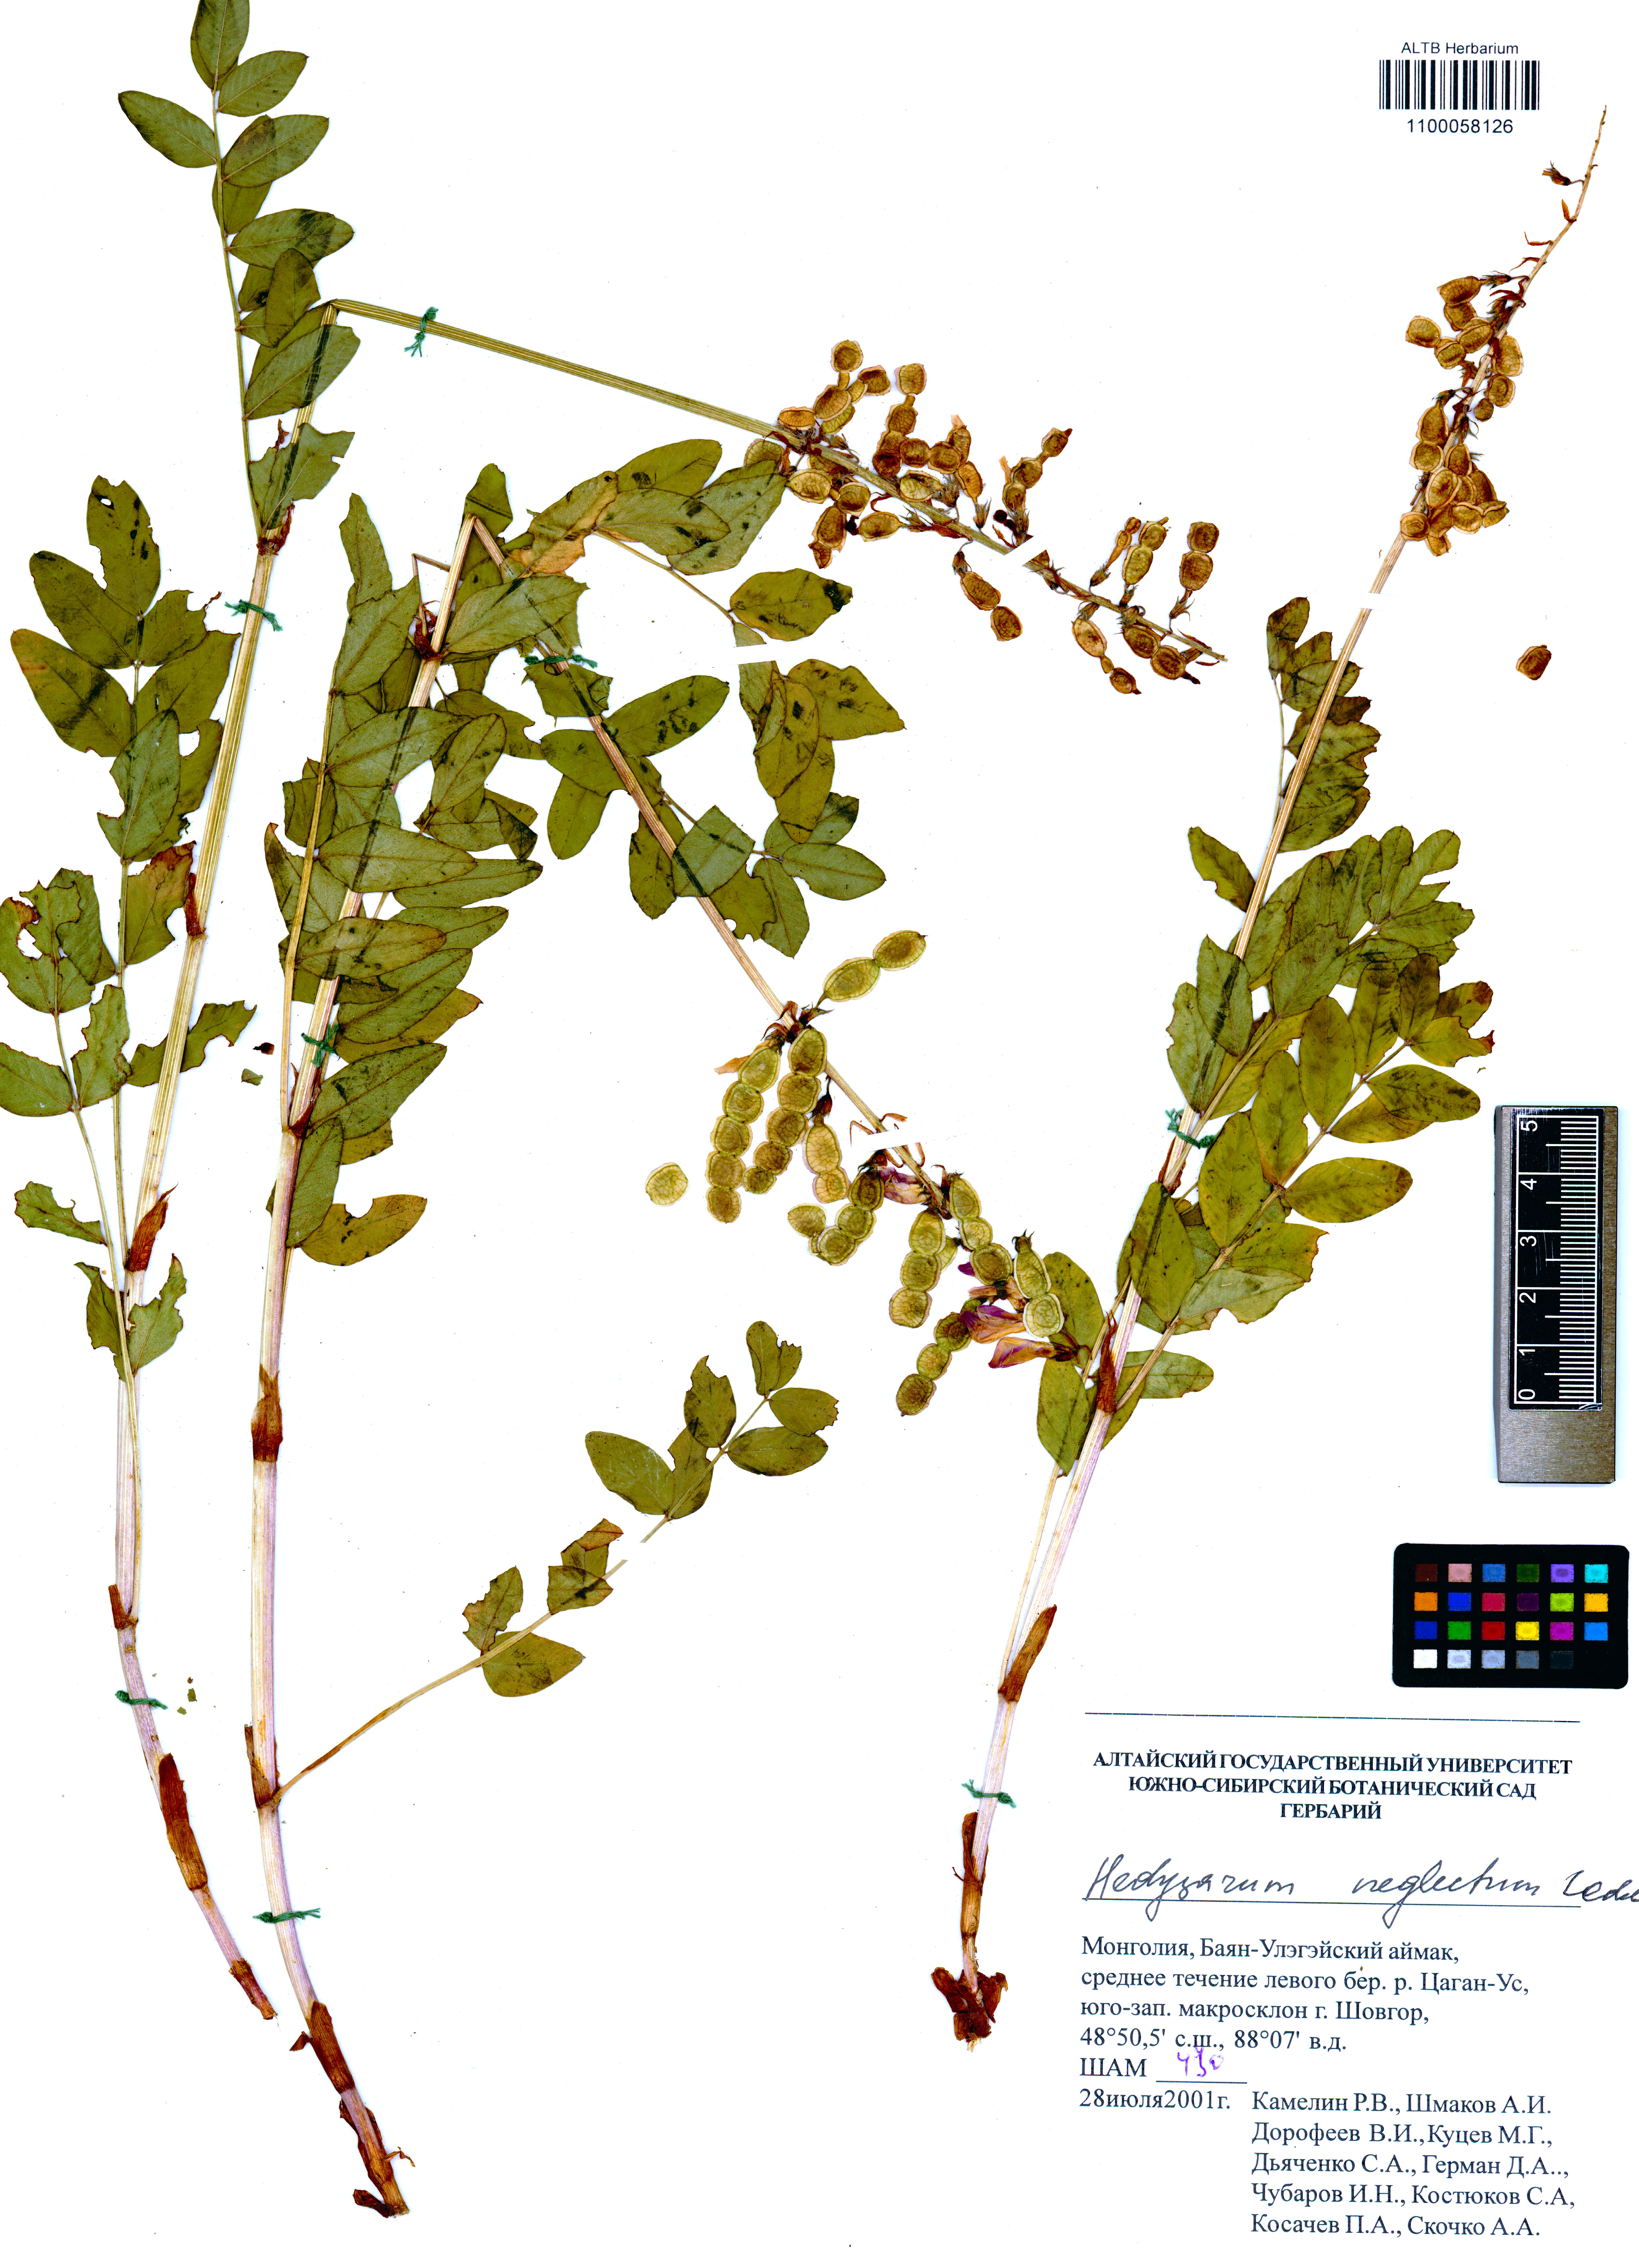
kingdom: Plantae
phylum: Tracheophyta
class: Magnoliopsida
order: Fabales
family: Fabaceae
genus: Hedysarum
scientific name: Hedysarum neglectum
